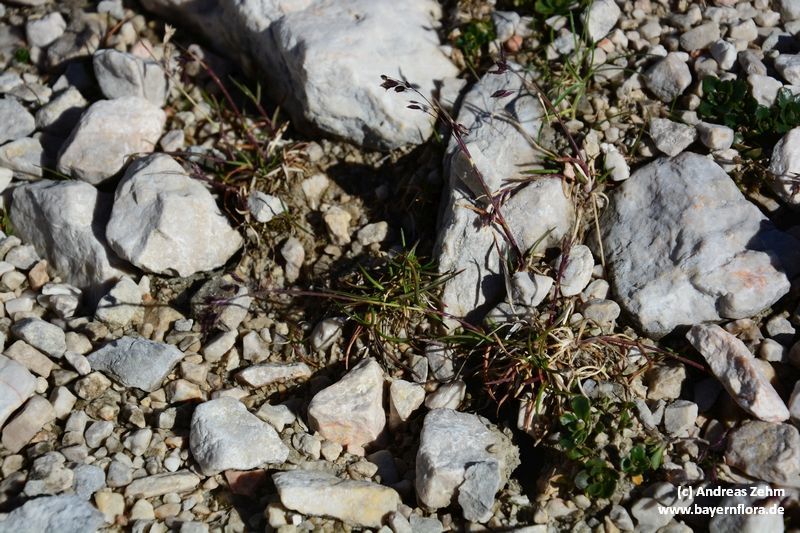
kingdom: Plantae
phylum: Tracheophyta
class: Liliopsida
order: Poales
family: Poaceae
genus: Poa
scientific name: Poa minor
